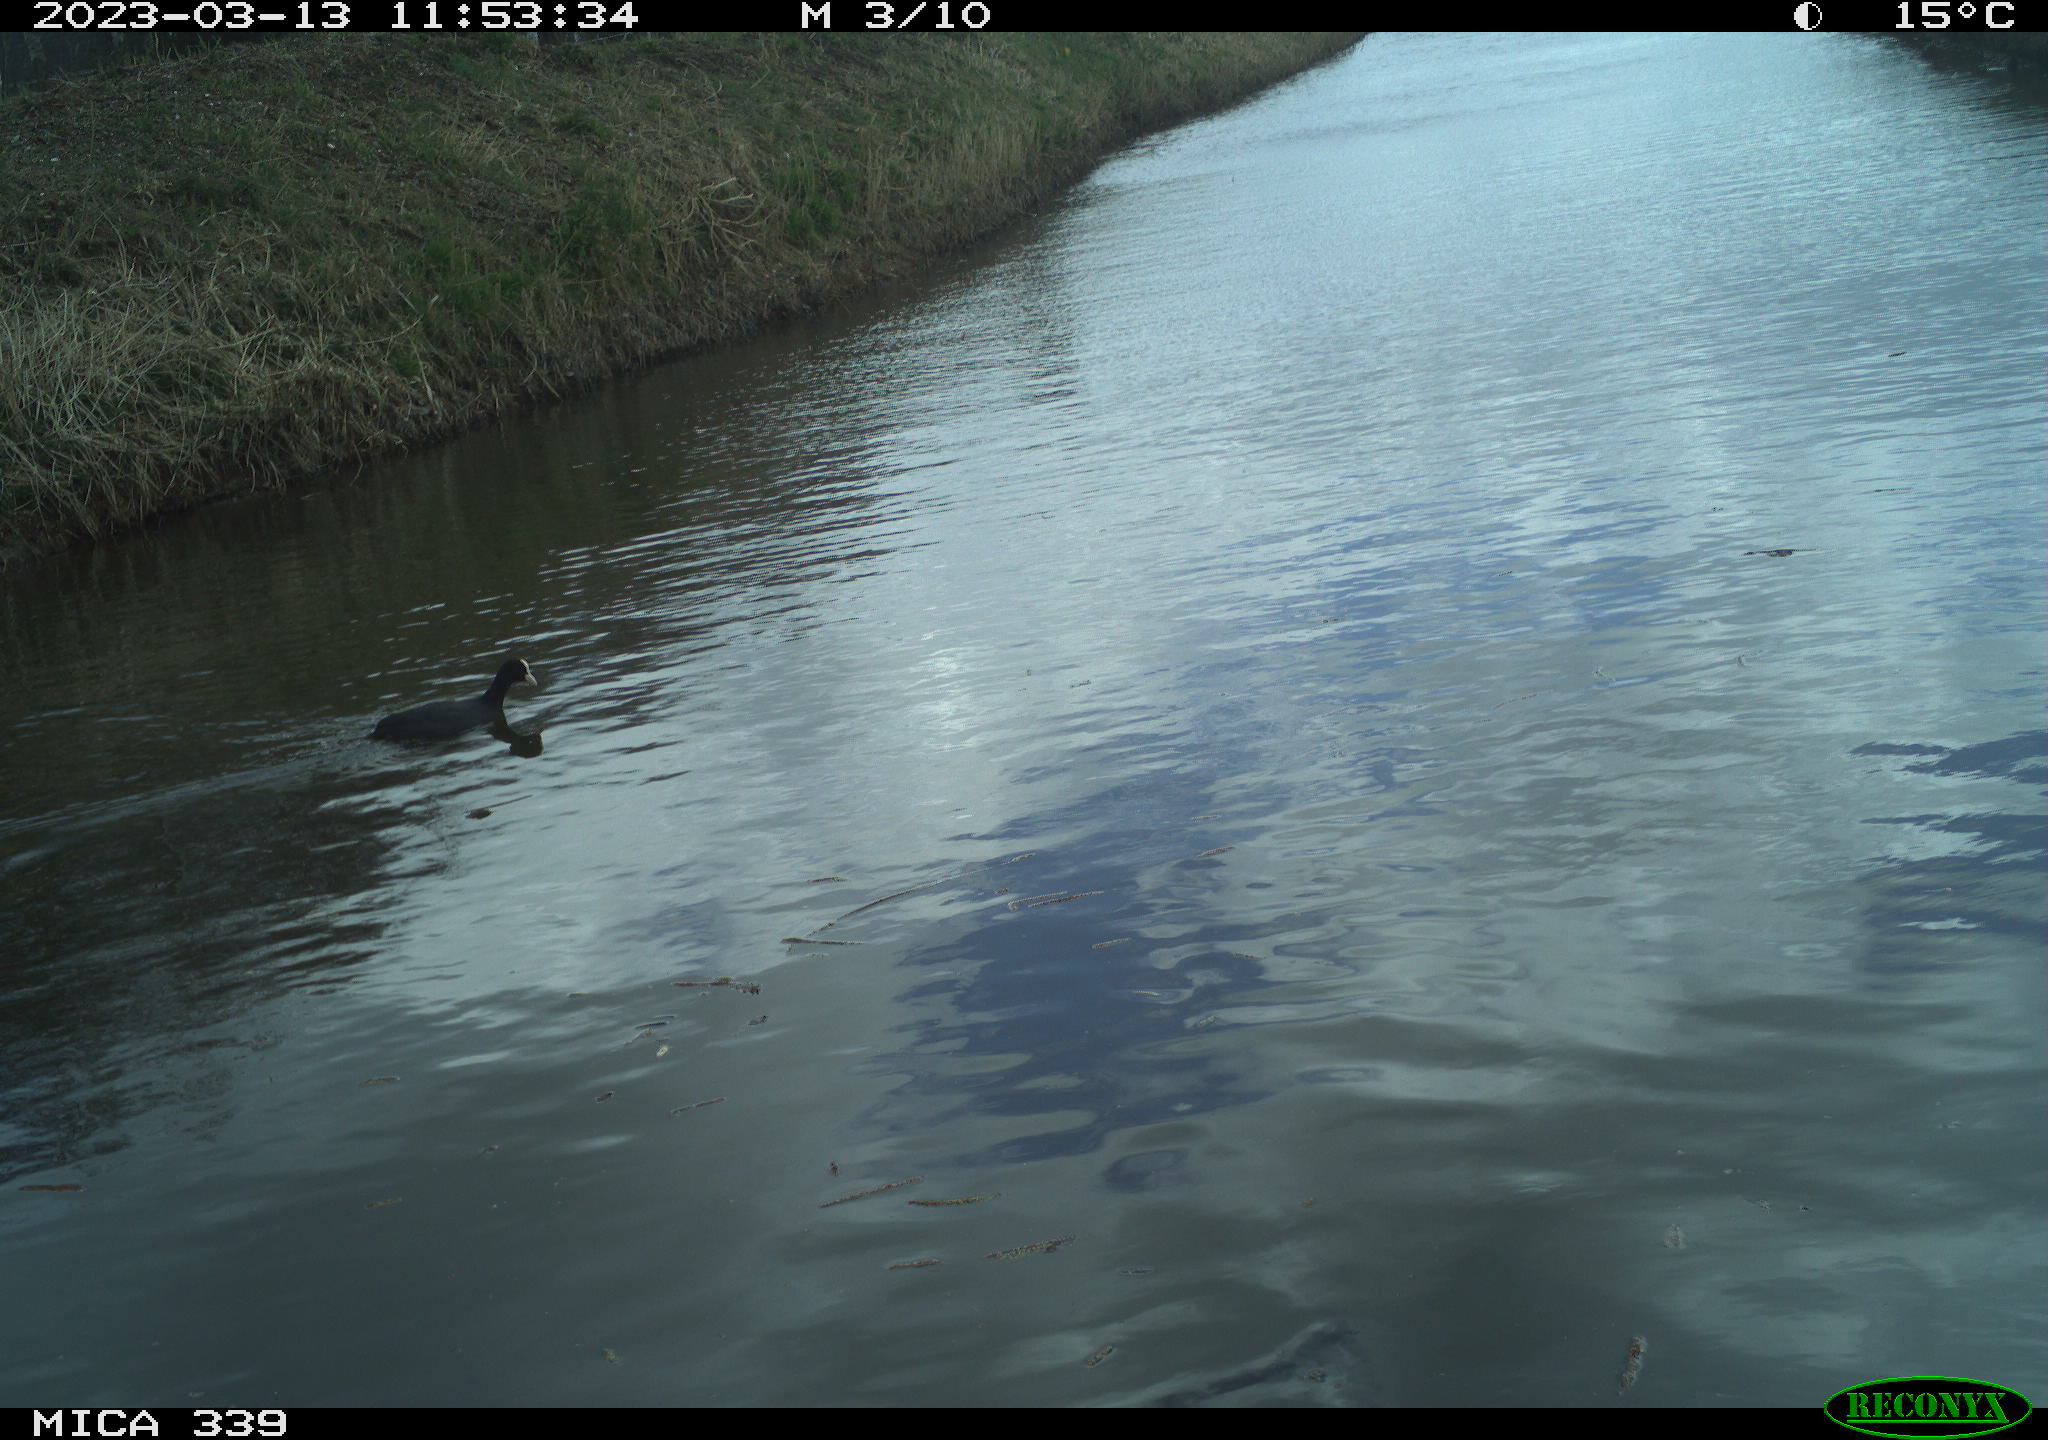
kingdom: Animalia
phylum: Chordata
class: Aves
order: Gruiformes
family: Rallidae
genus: Fulica
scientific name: Fulica atra
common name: Eurasian coot
